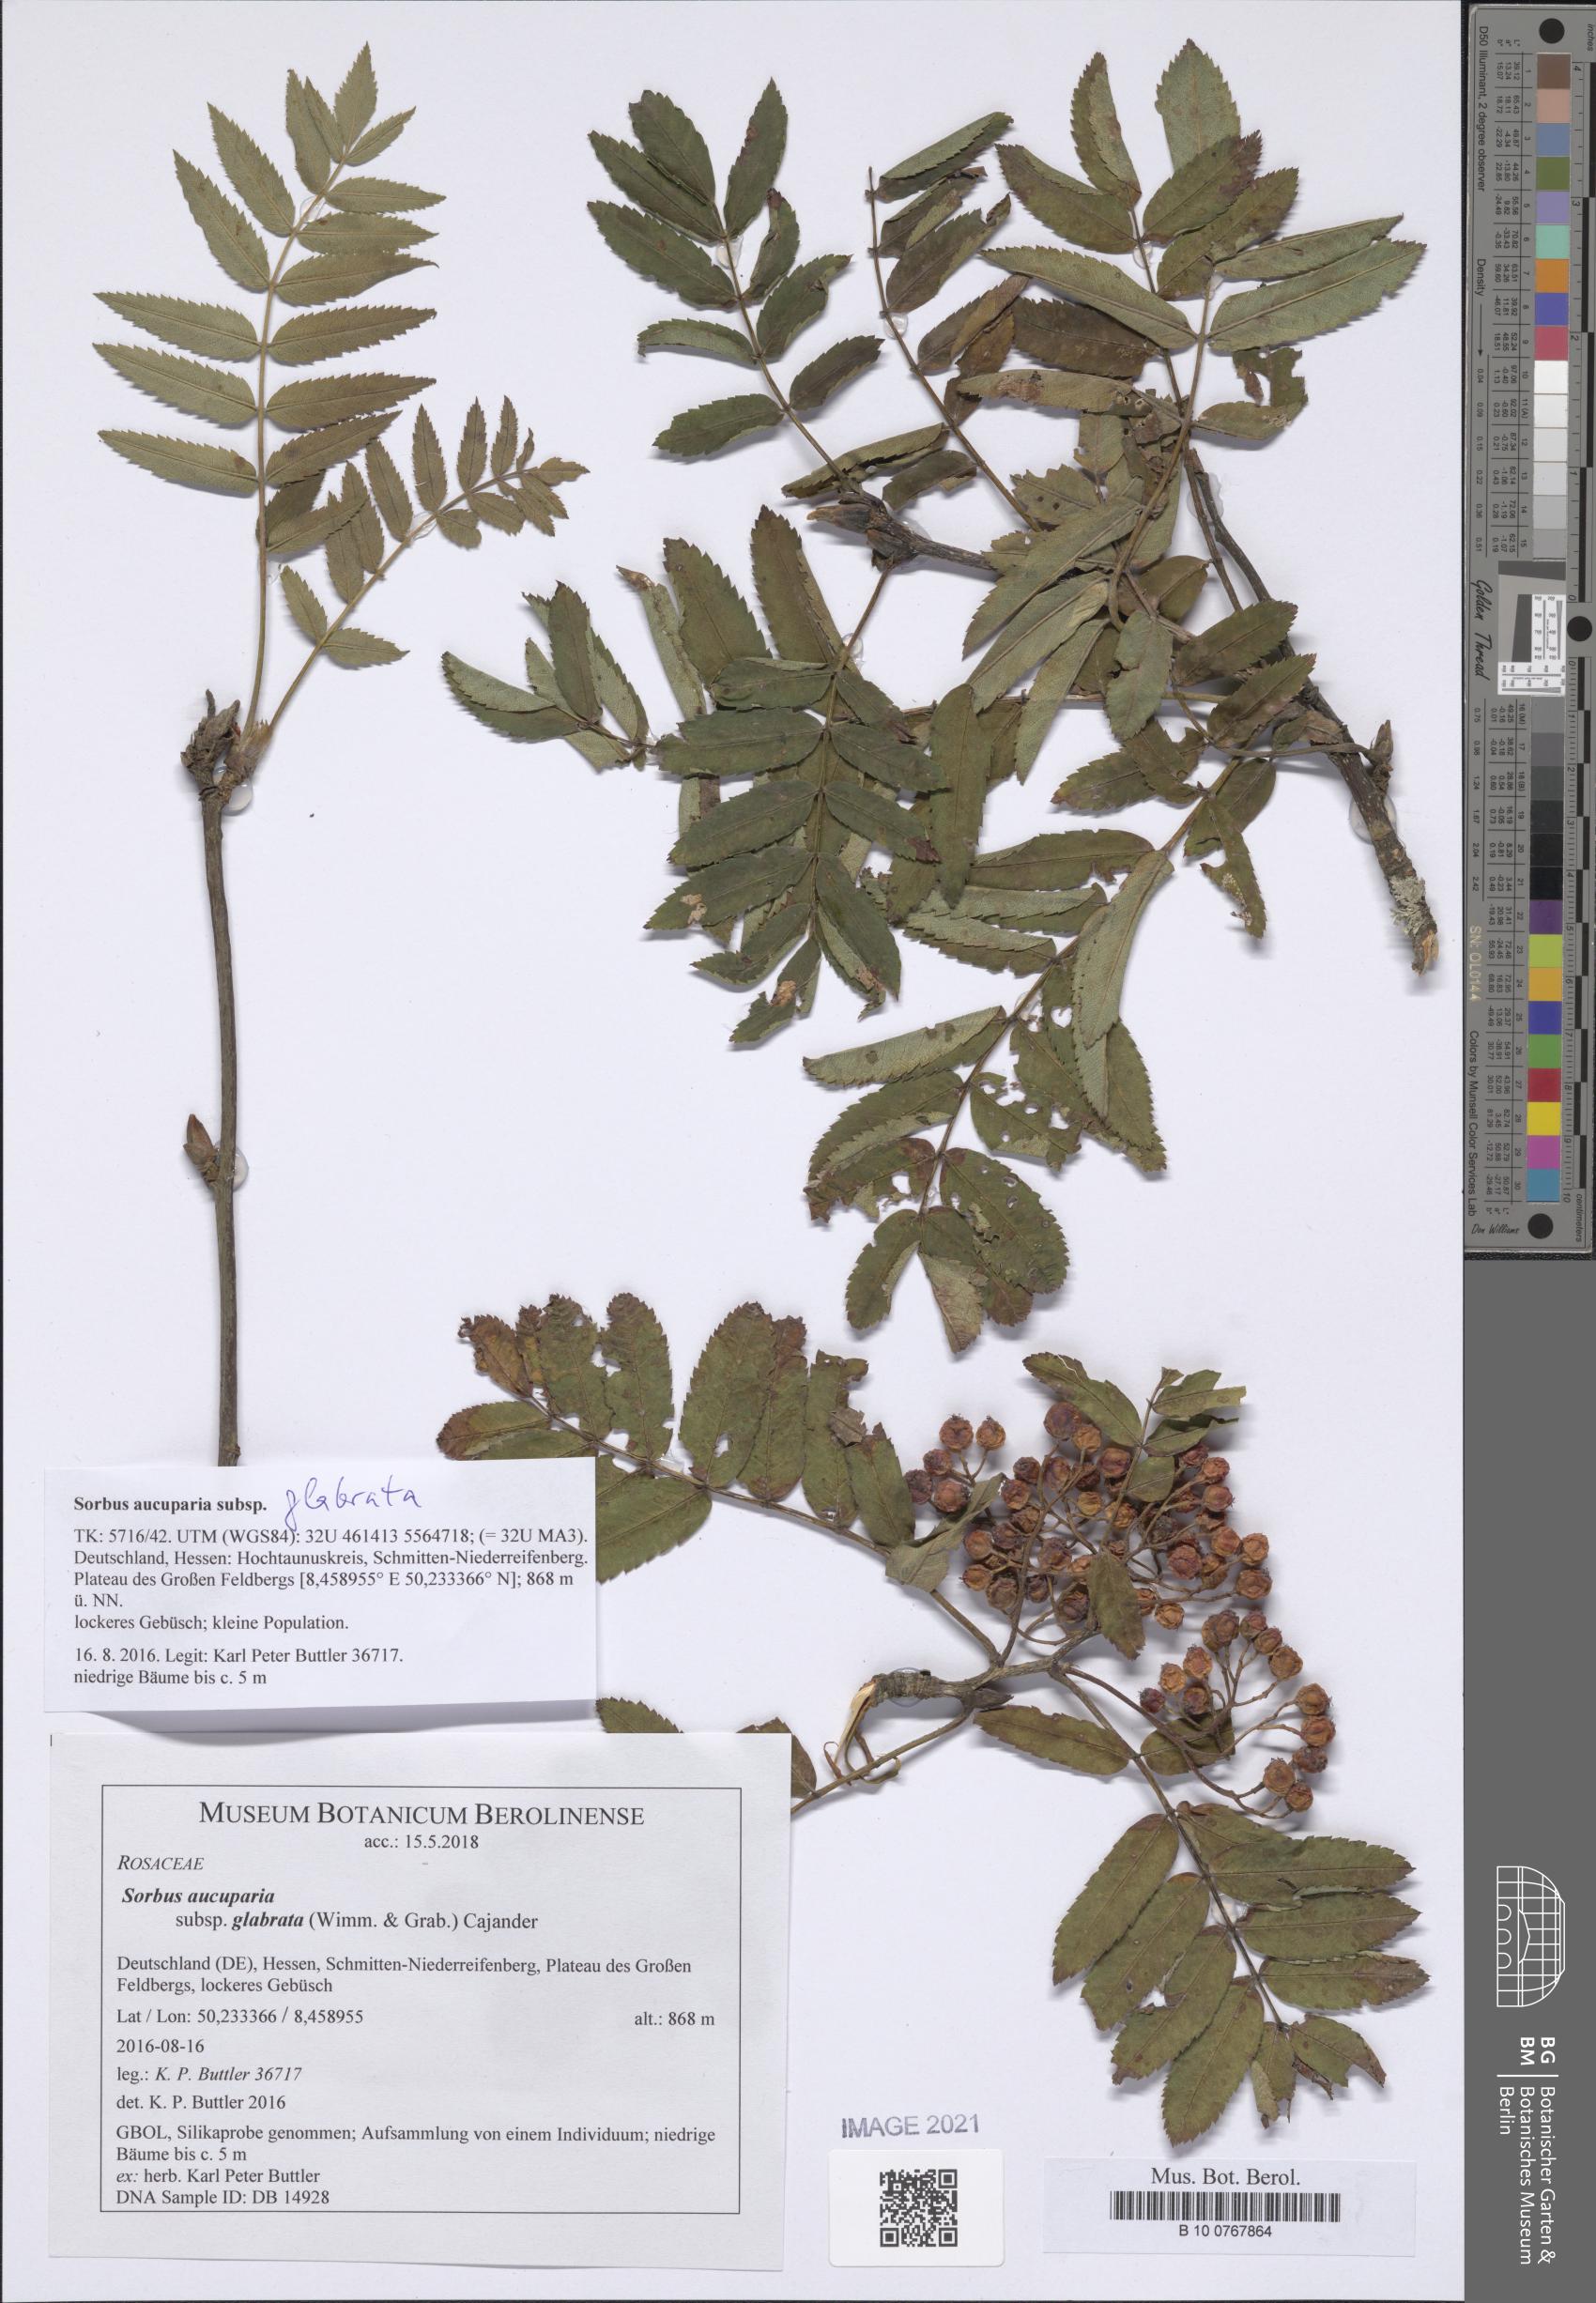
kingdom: Plantae
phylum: Tracheophyta
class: Magnoliopsida
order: Rosales
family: Rosaceae
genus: Sorbus
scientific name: Sorbus aucuparia
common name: Rowan
